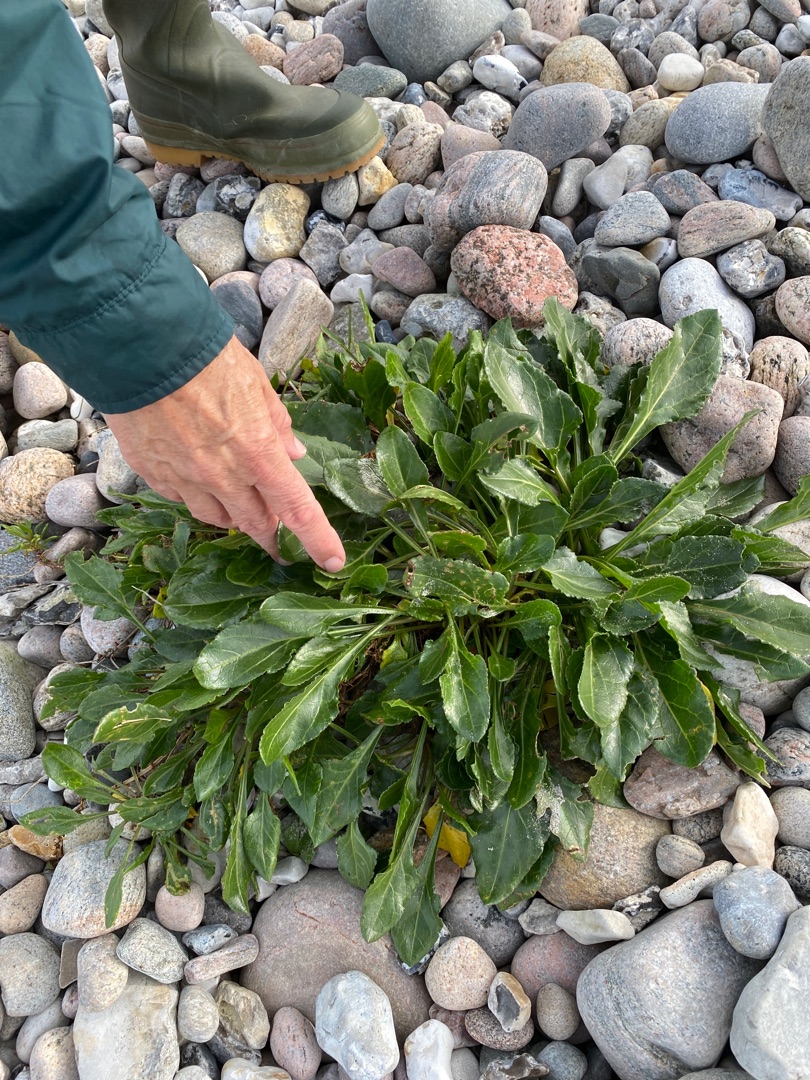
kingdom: Plantae
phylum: Tracheophyta
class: Magnoliopsida
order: Caryophyllales
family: Amaranthaceae
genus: Beta
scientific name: Beta maritima
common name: Strand-bede
